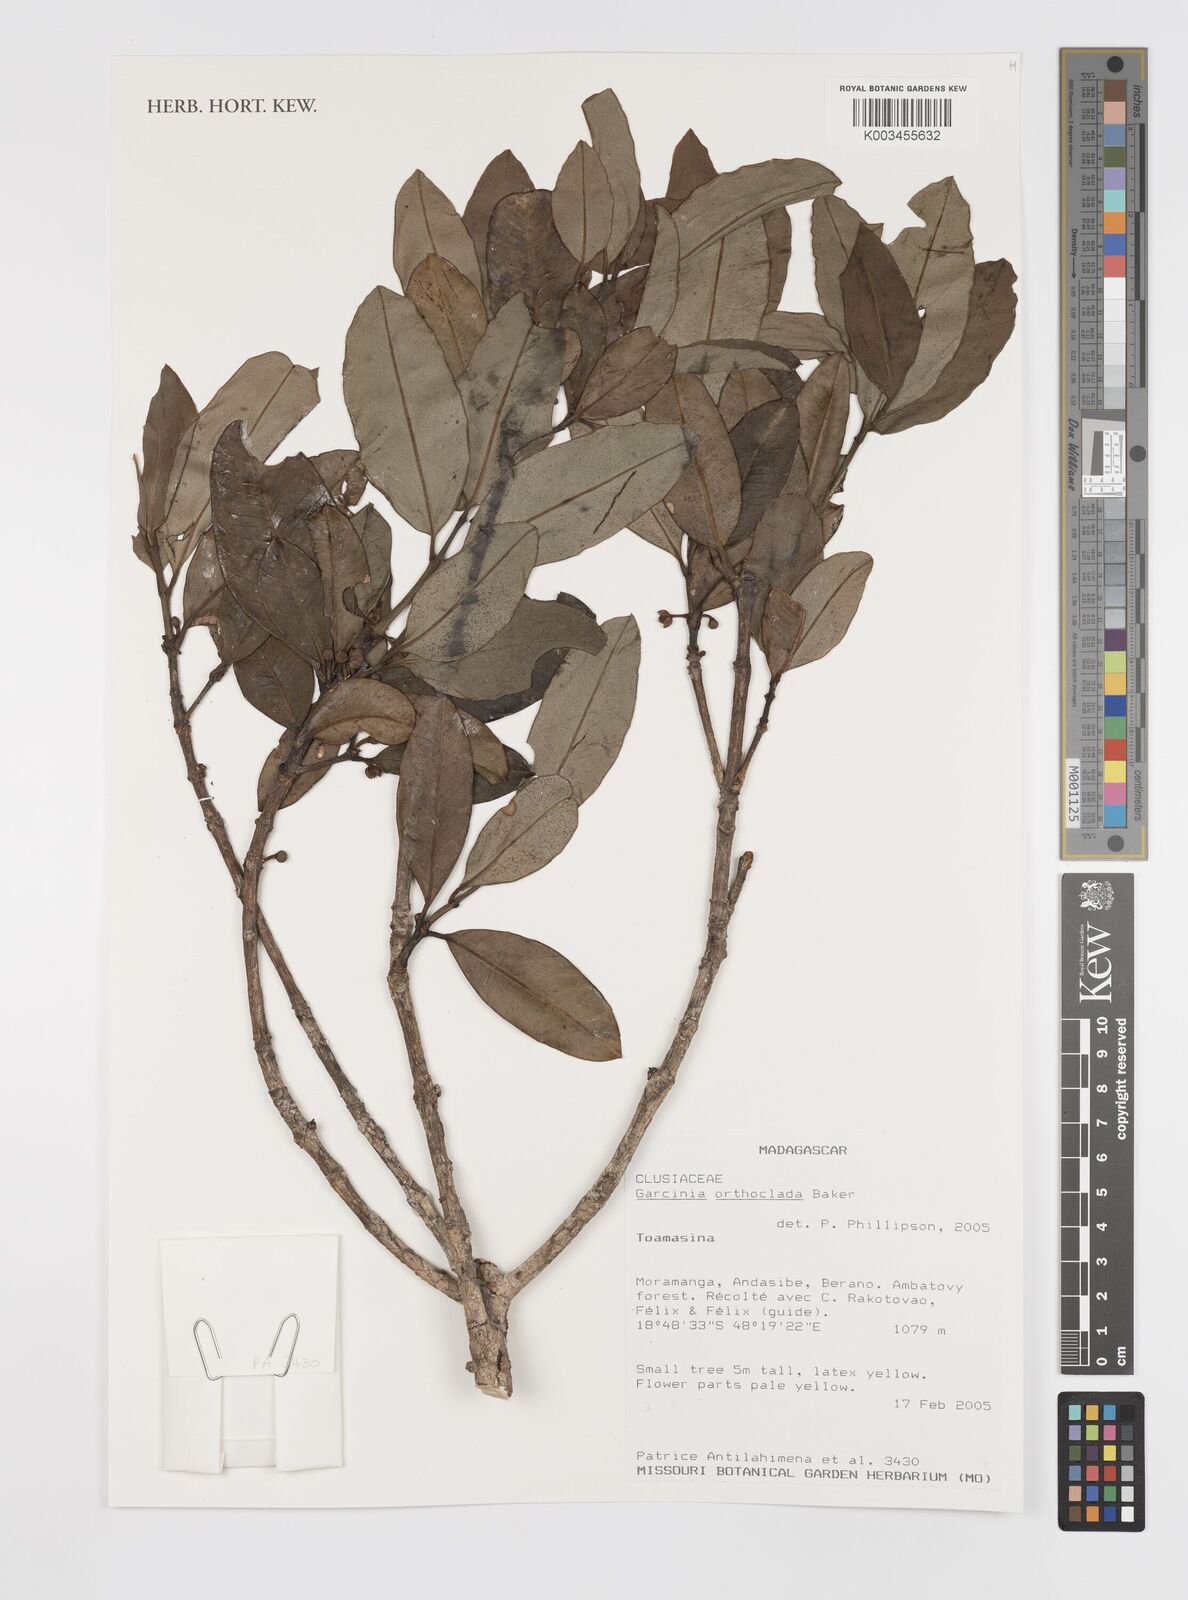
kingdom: Plantae
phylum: Tracheophyta
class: Magnoliopsida
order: Malpighiales
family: Clusiaceae
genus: Garcinia
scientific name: Garcinia orthoclada
